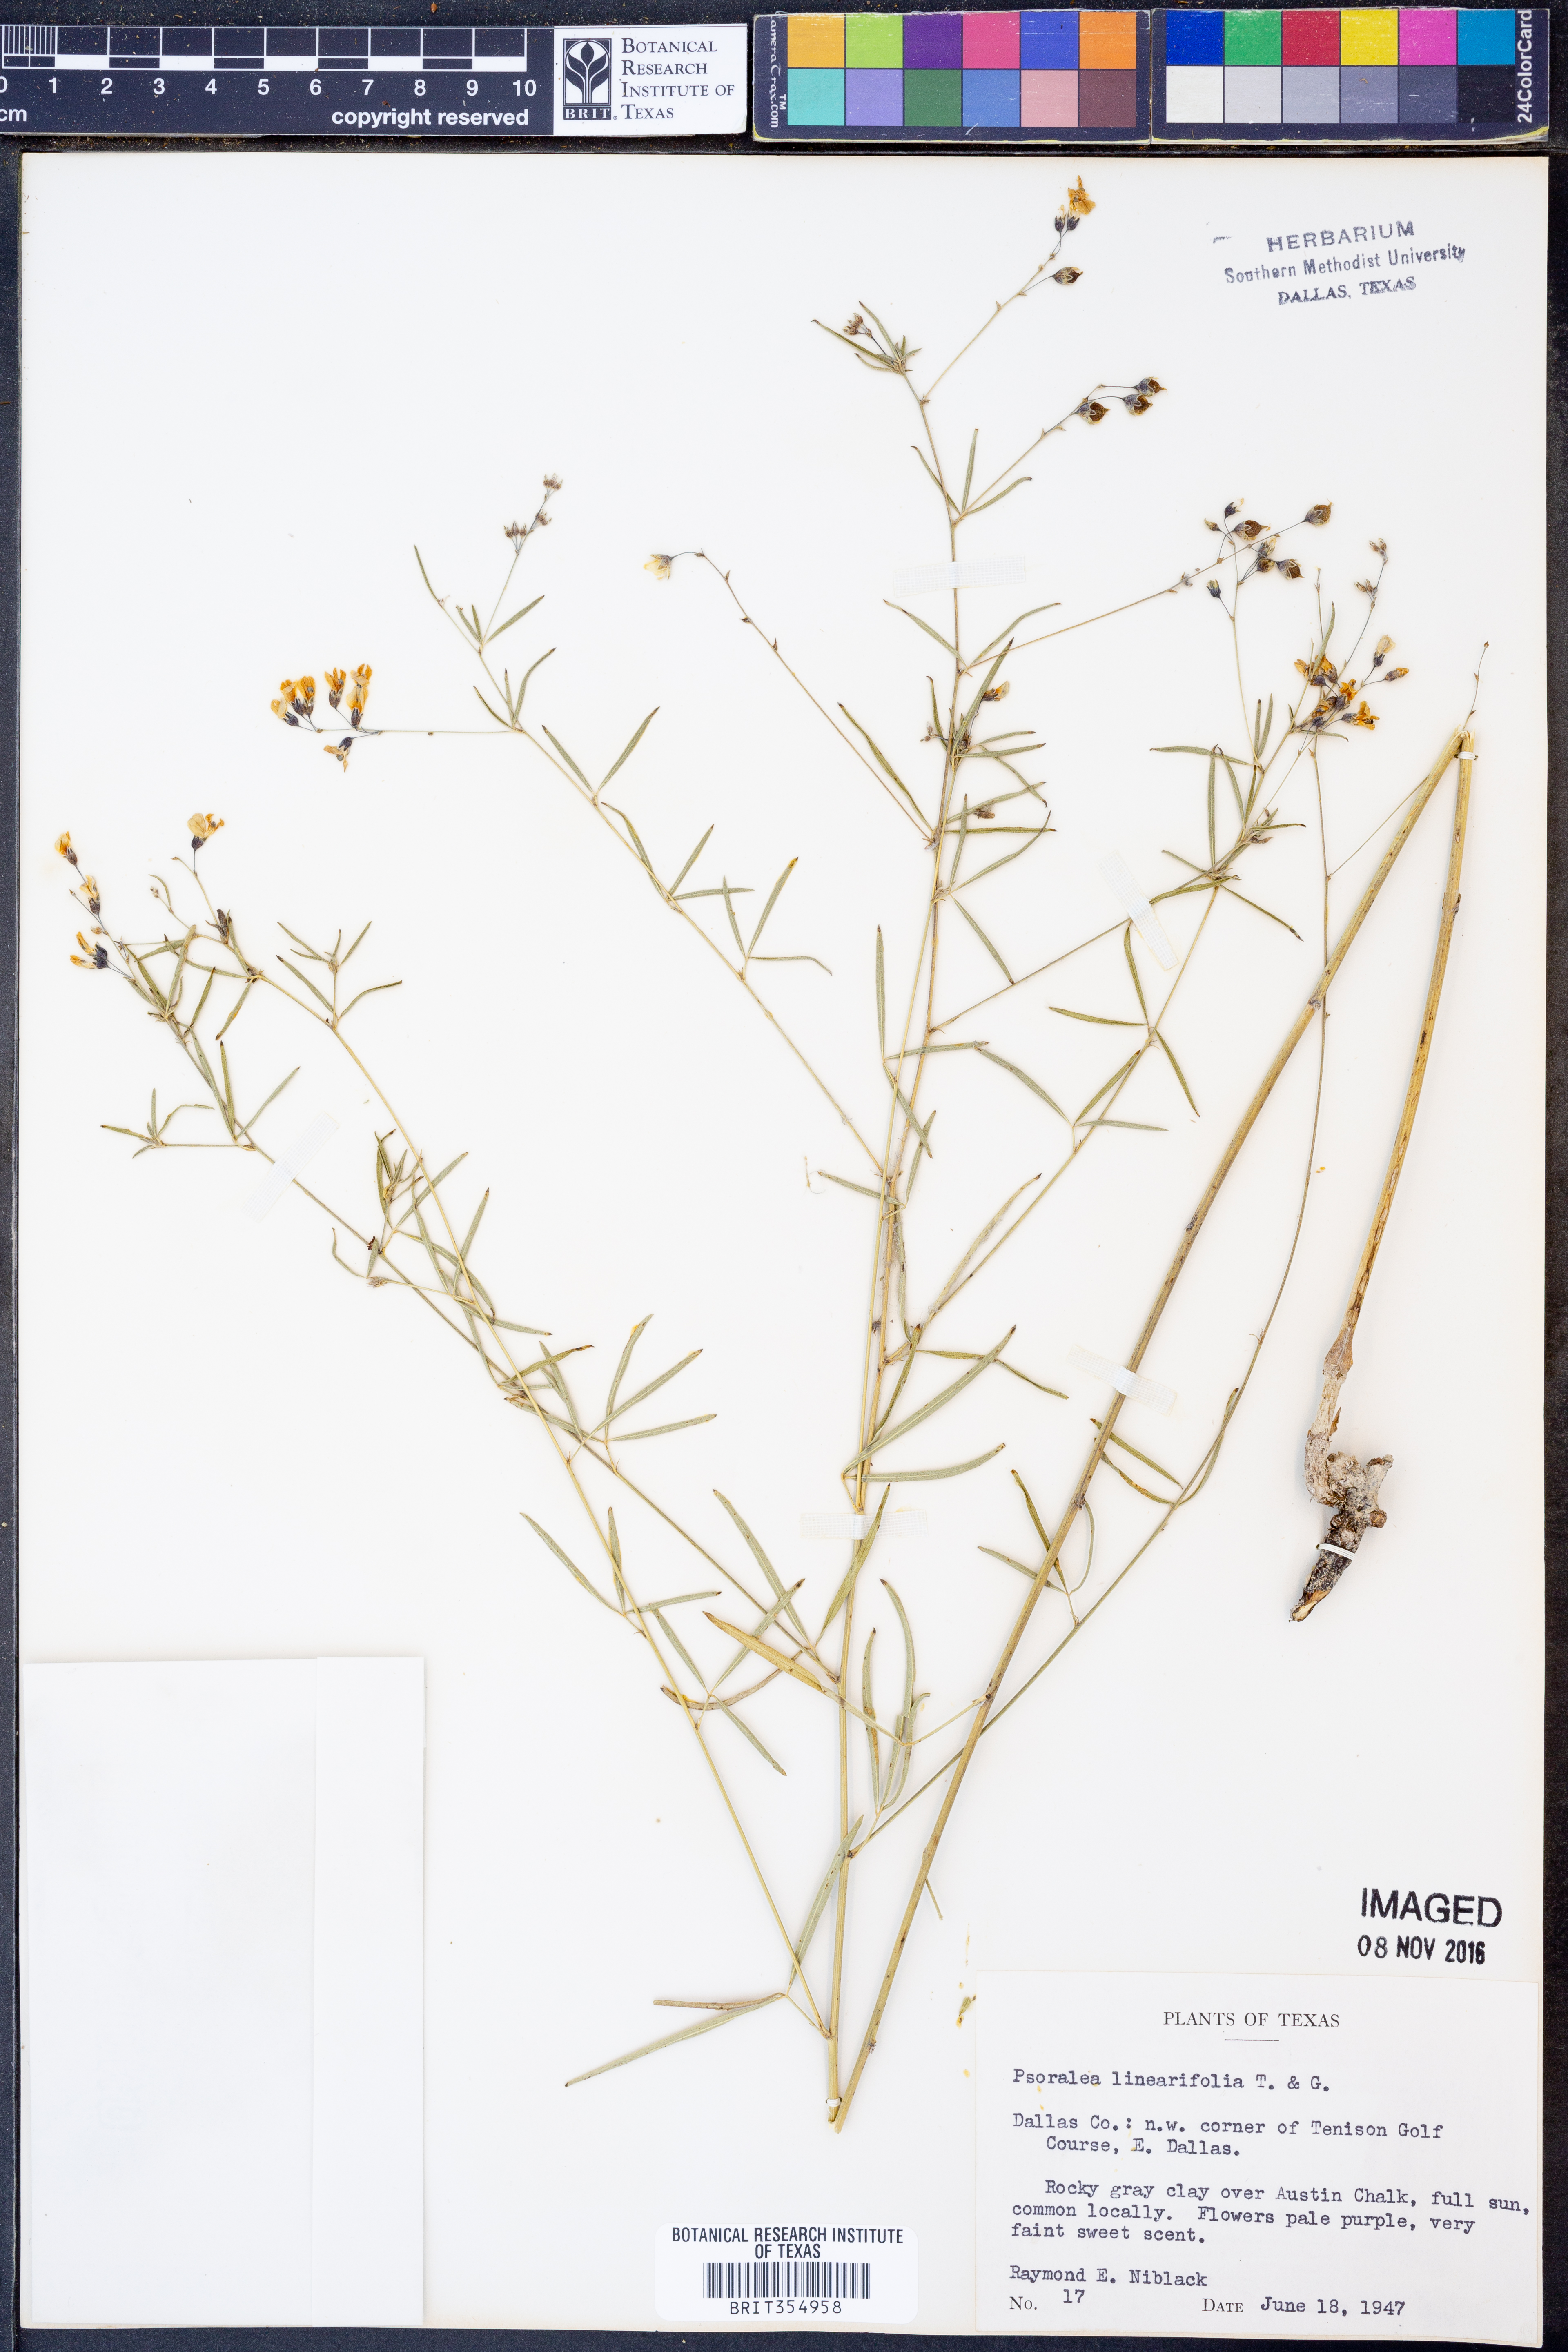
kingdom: Plantae
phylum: Tracheophyta
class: Magnoliopsida
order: Fabales
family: Fabaceae
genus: Pediomelum
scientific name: Pediomelum linearifolium
